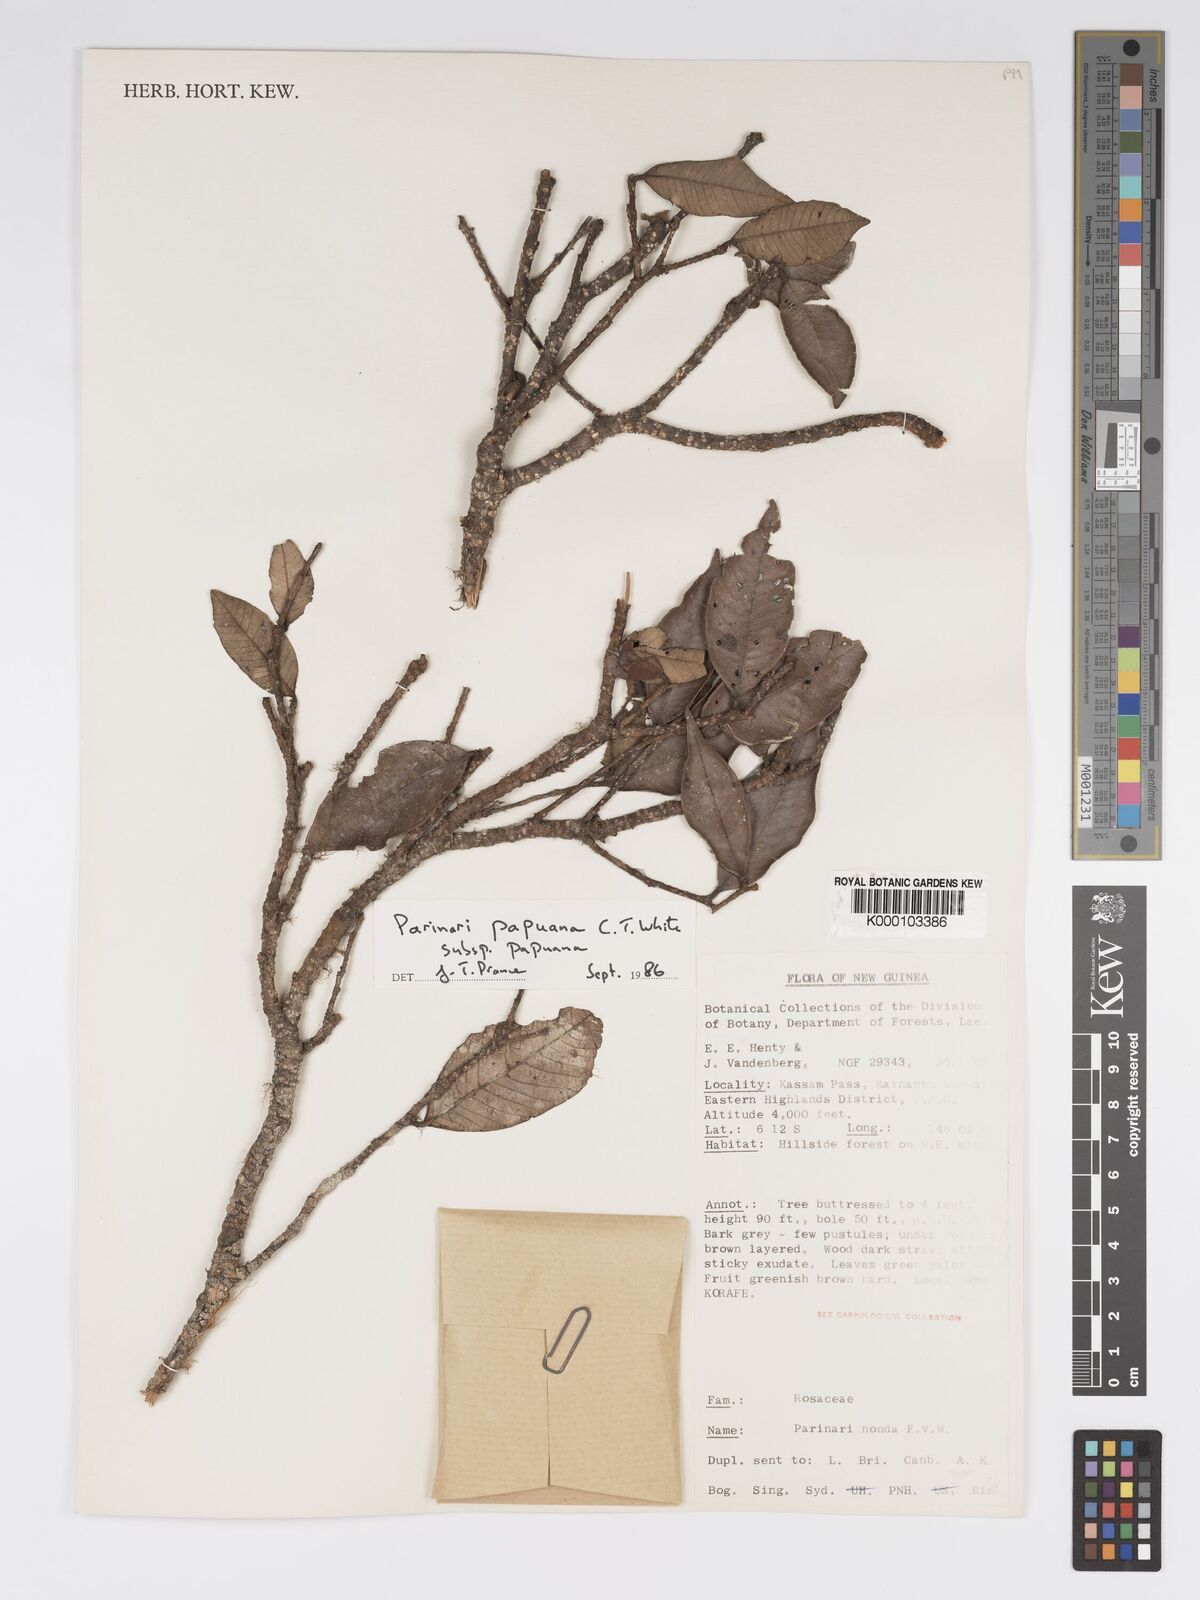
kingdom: Plantae
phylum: Tracheophyta
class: Magnoliopsida
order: Malpighiales
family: Chrysobalanaceae
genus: Parinari
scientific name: Parinari papuana
